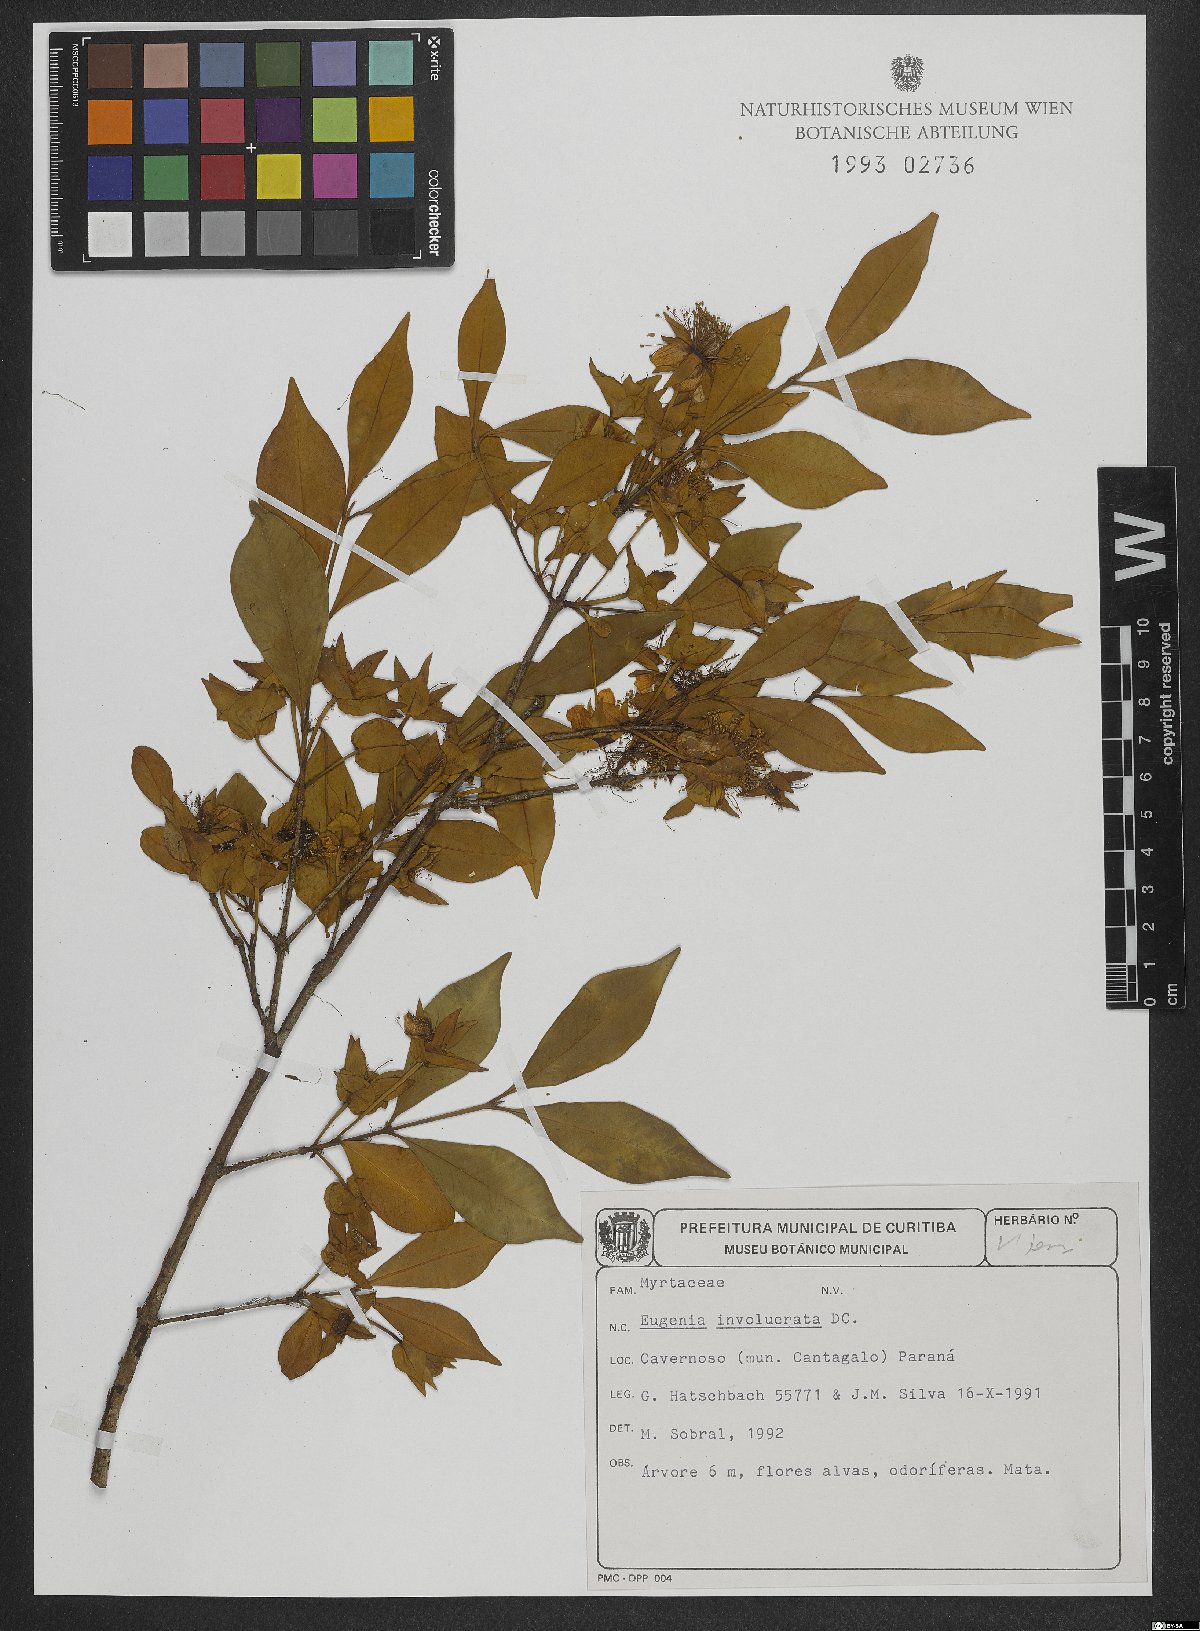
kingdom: Plantae
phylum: Tracheophyta
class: Magnoliopsida
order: Myrtales
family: Myrtaceae
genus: Eugenia
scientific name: Eugenia involucrata
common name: Cherry-of-the-rio grande
